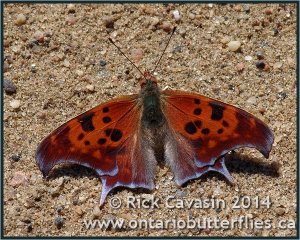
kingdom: Animalia
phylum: Arthropoda
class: Insecta
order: Lepidoptera
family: Nymphalidae
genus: Polygonia
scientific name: Polygonia interrogationis
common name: Question Mark
